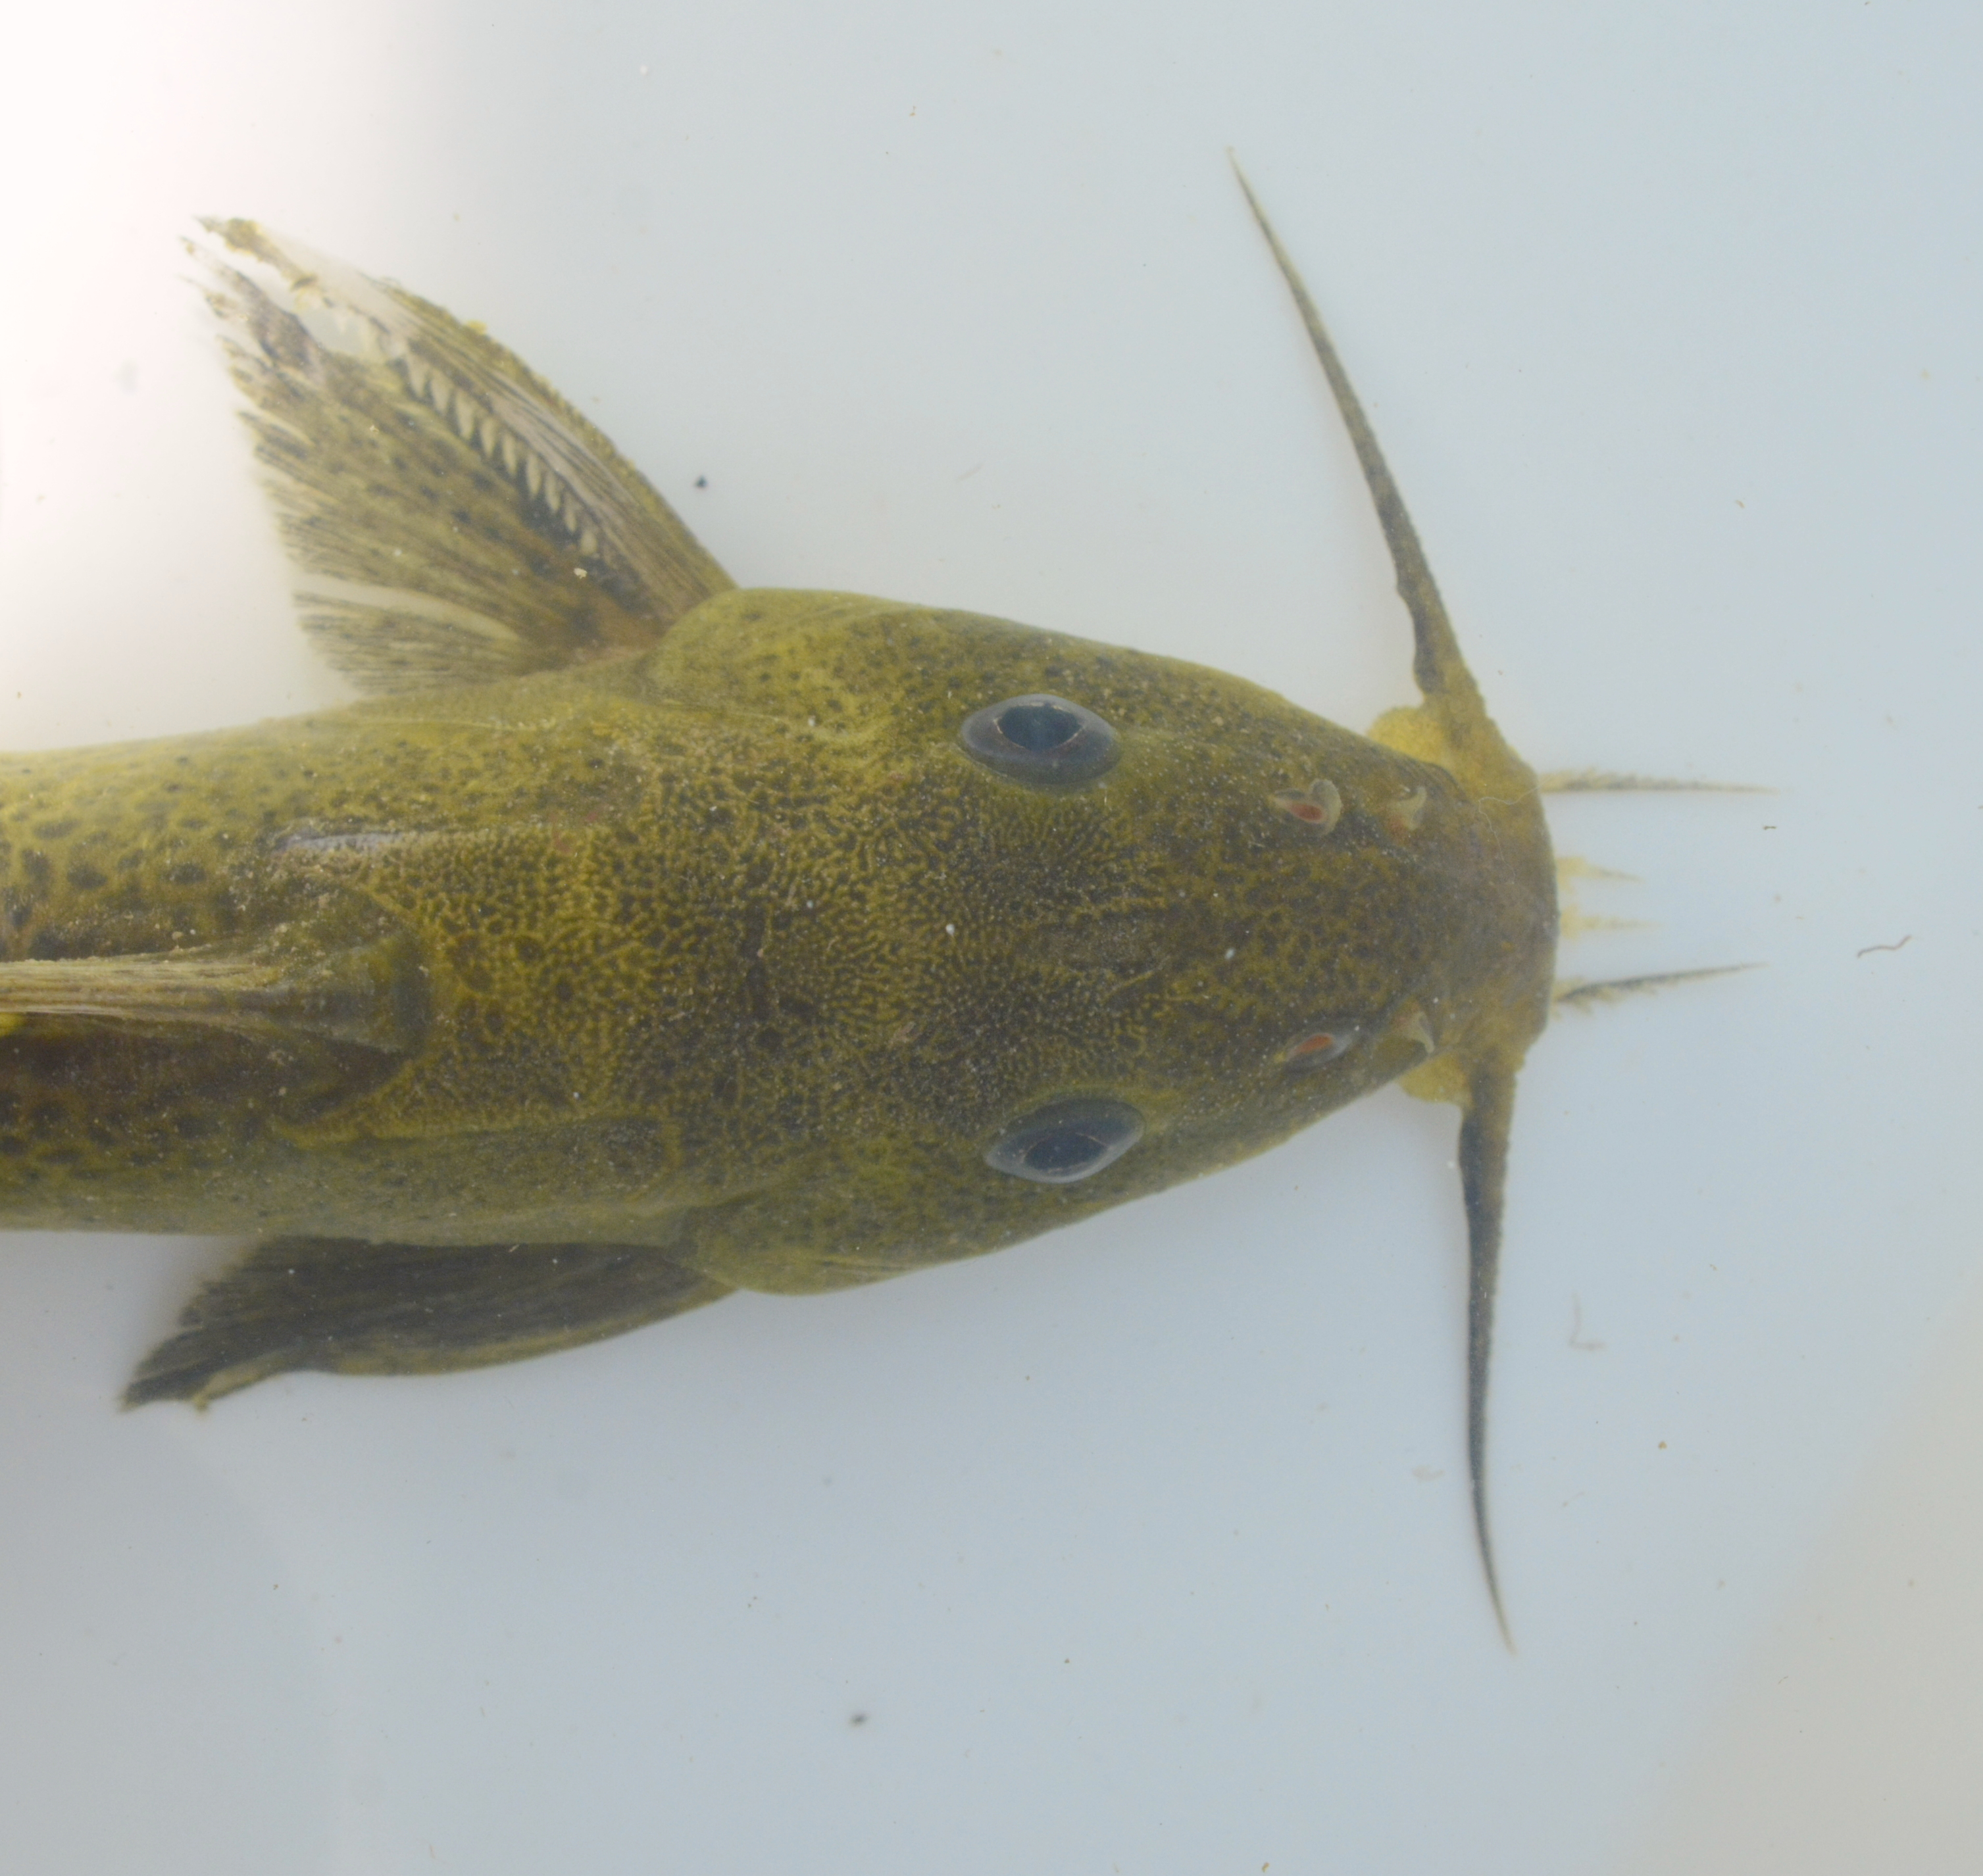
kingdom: Animalia
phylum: Chordata
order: Siluriformes
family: Mochokidae
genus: Synodontis
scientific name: Synodontis woosnami
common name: Upper zambezi squeaker
